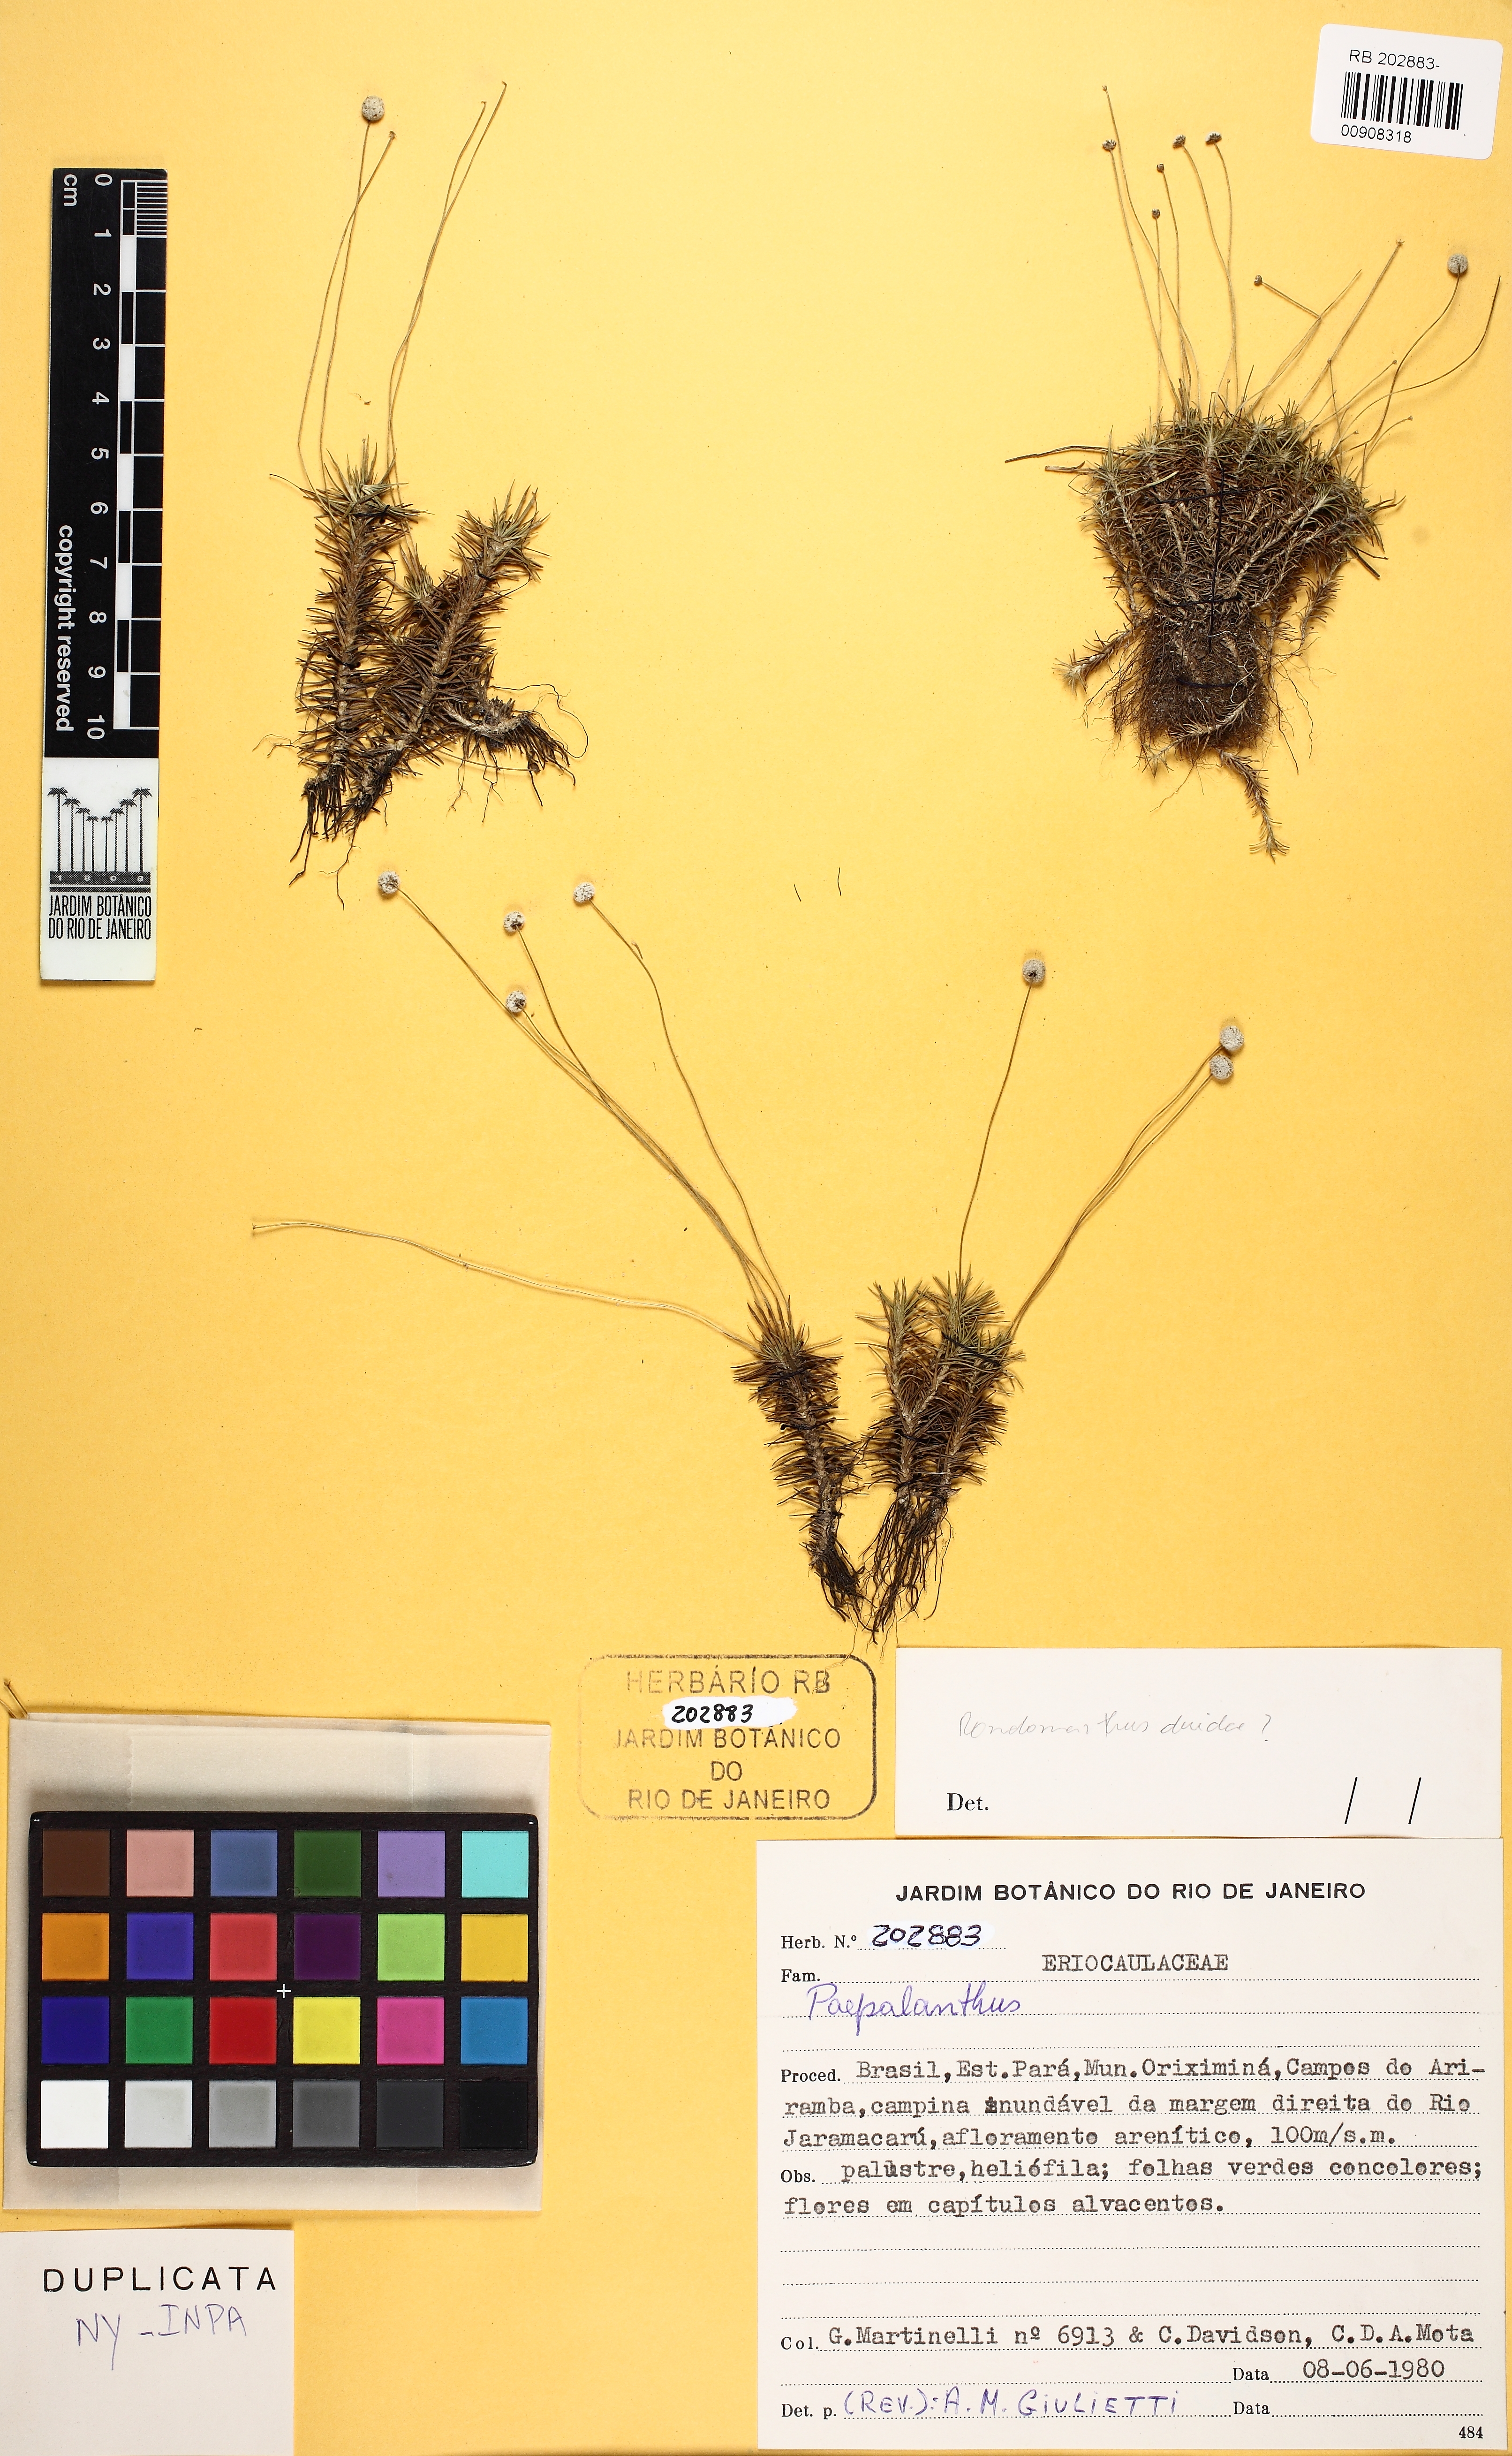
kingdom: Plantae
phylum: Tracheophyta
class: Liliopsida
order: Poales
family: Eriocaulaceae
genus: Paepalanthus
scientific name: Paepalanthus
